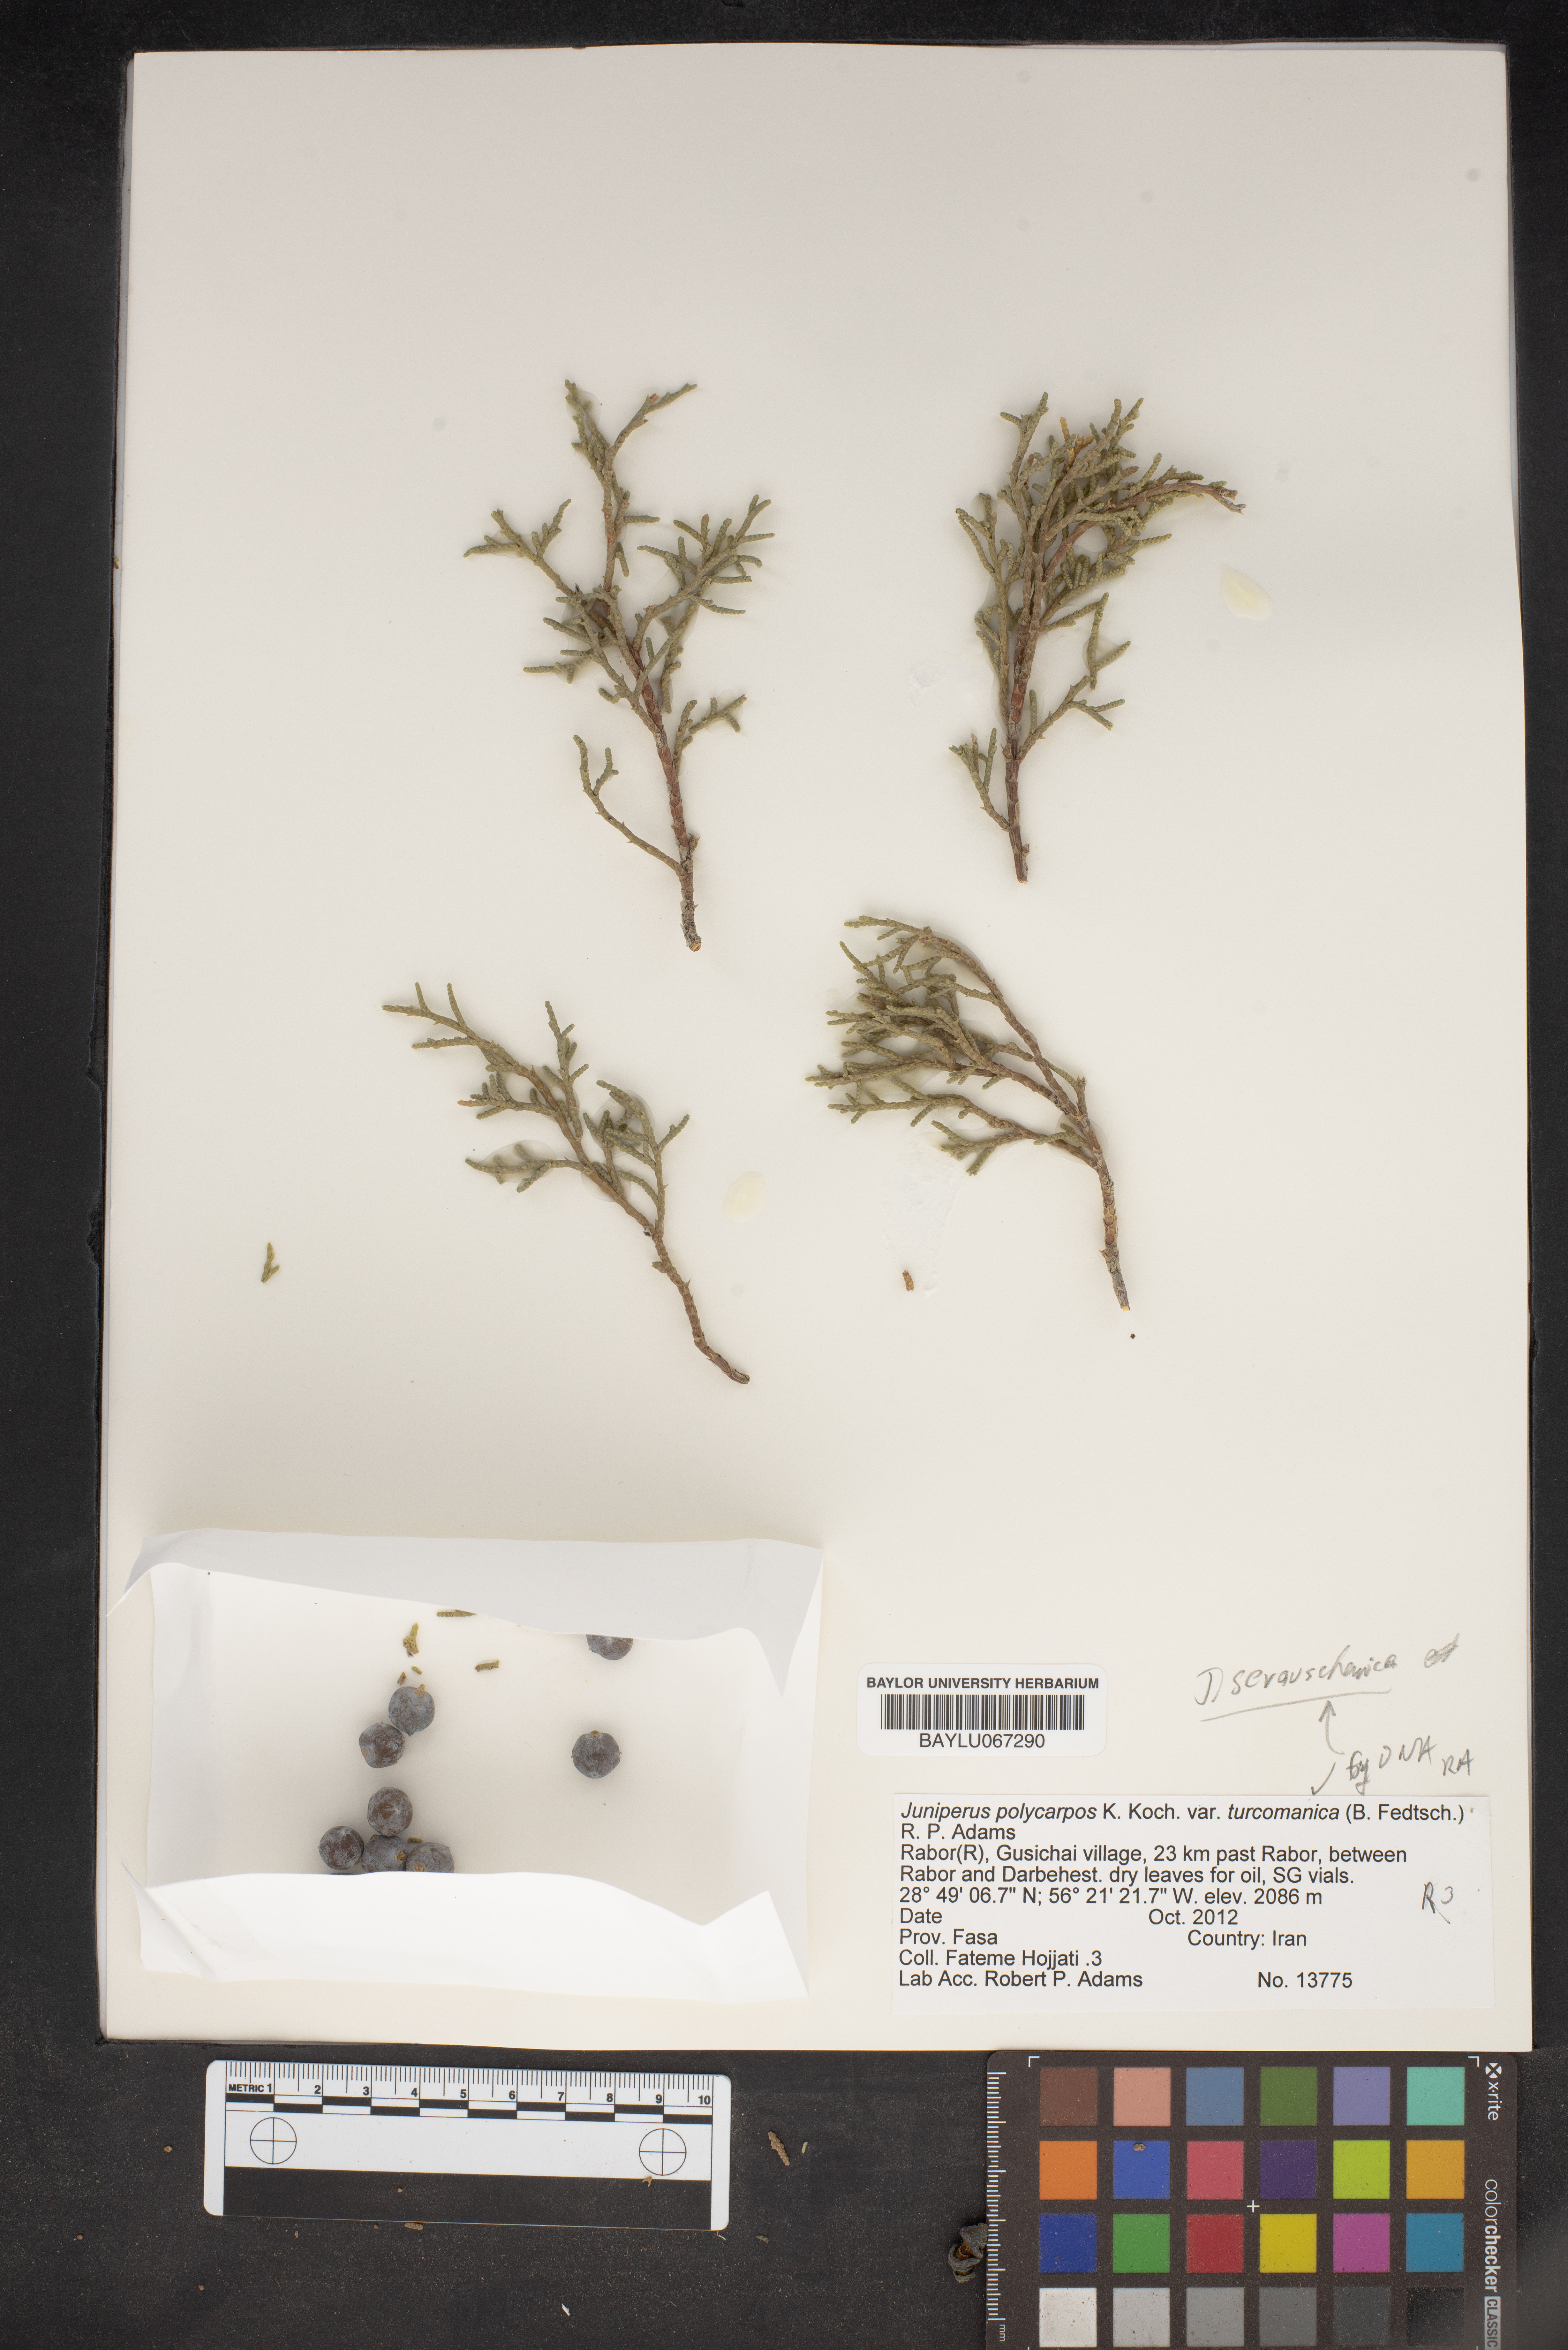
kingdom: Plantae
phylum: Tracheophyta
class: Pinopsida
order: Pinales
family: Cupressaceae
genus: Juniperus
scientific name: Juniperus excelsa
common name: Crimean juniper
